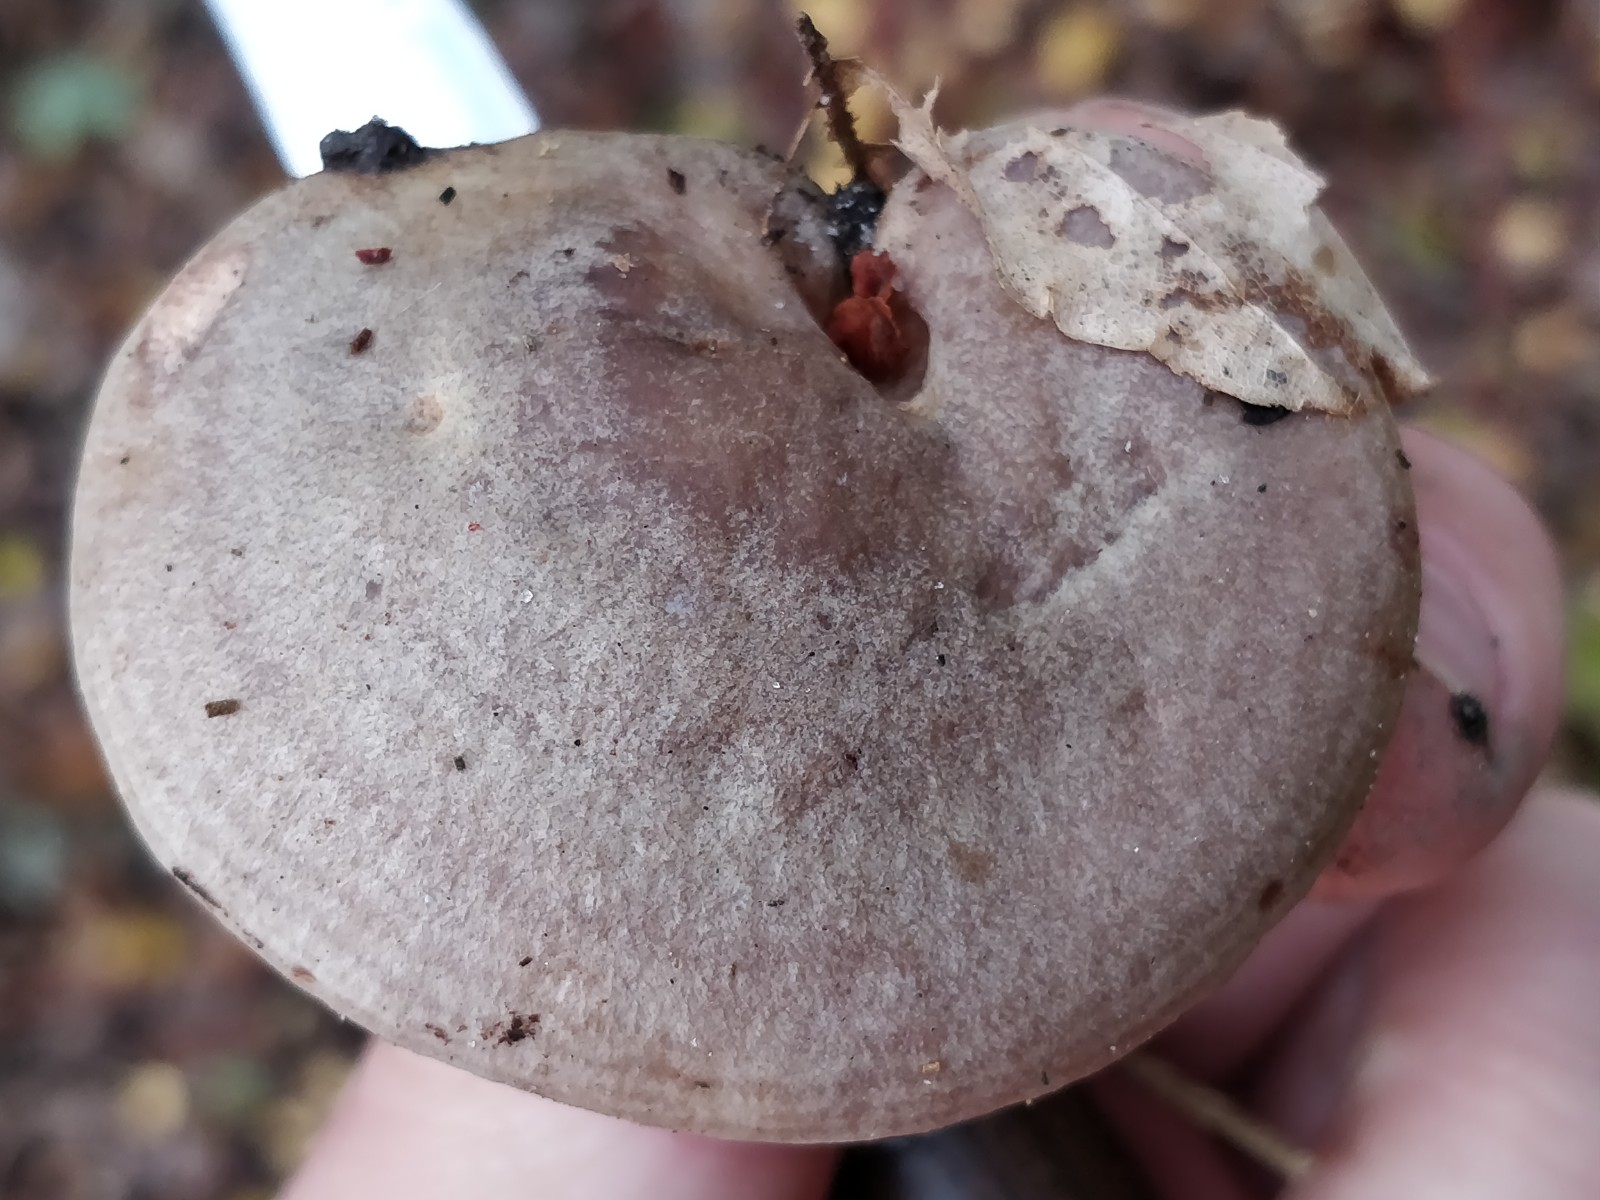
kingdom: Fungi
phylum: Basidiomycota
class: Agaricomycetes
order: Russulales
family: Russulaceae
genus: Lactarius
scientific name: Lactarius pyrogalus
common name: hassel-mælkehat
